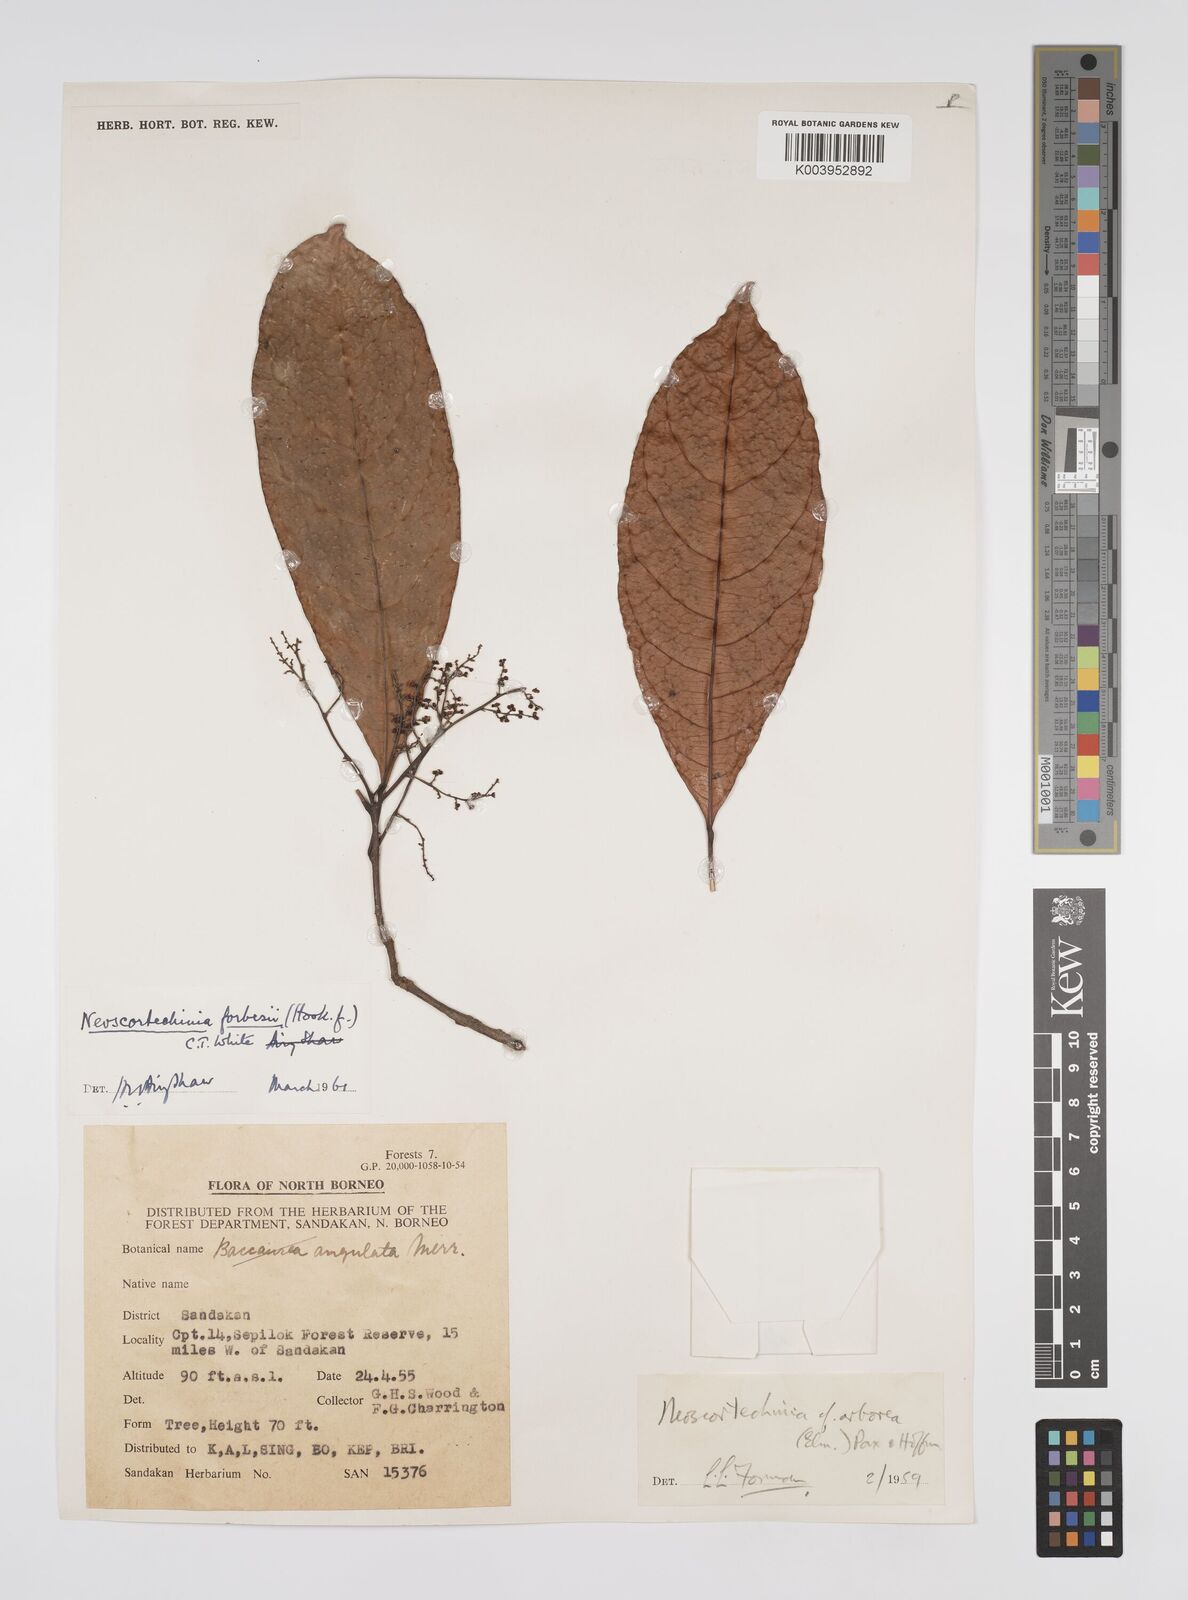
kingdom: Plantae
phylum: Tracheophyta
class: Magnoliopsida
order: Malpighiales
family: Euphorbiaceae
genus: Neoscortechinia
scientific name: Neoscortechinia philippinensis
